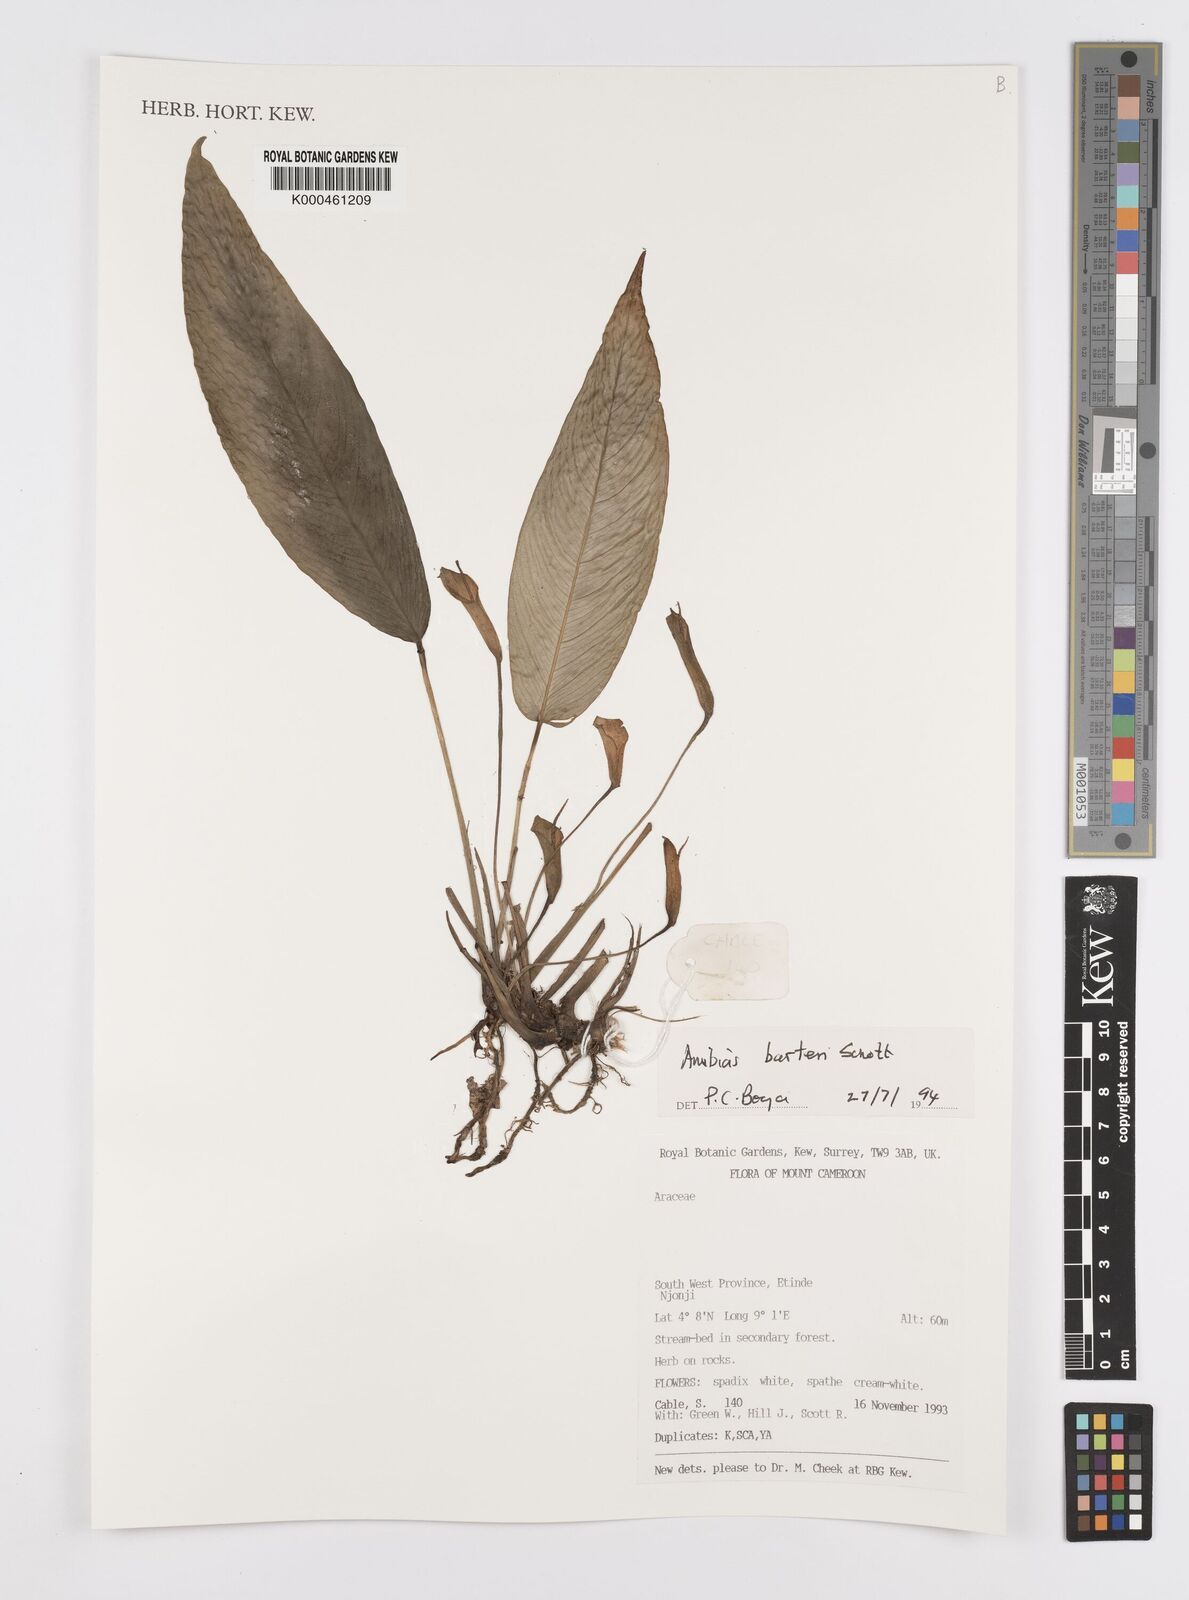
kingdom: Plantae
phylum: Tracheophyta
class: Liliopsida
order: Alismatales
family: Araceae
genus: Anubias
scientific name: Anubias barteri
